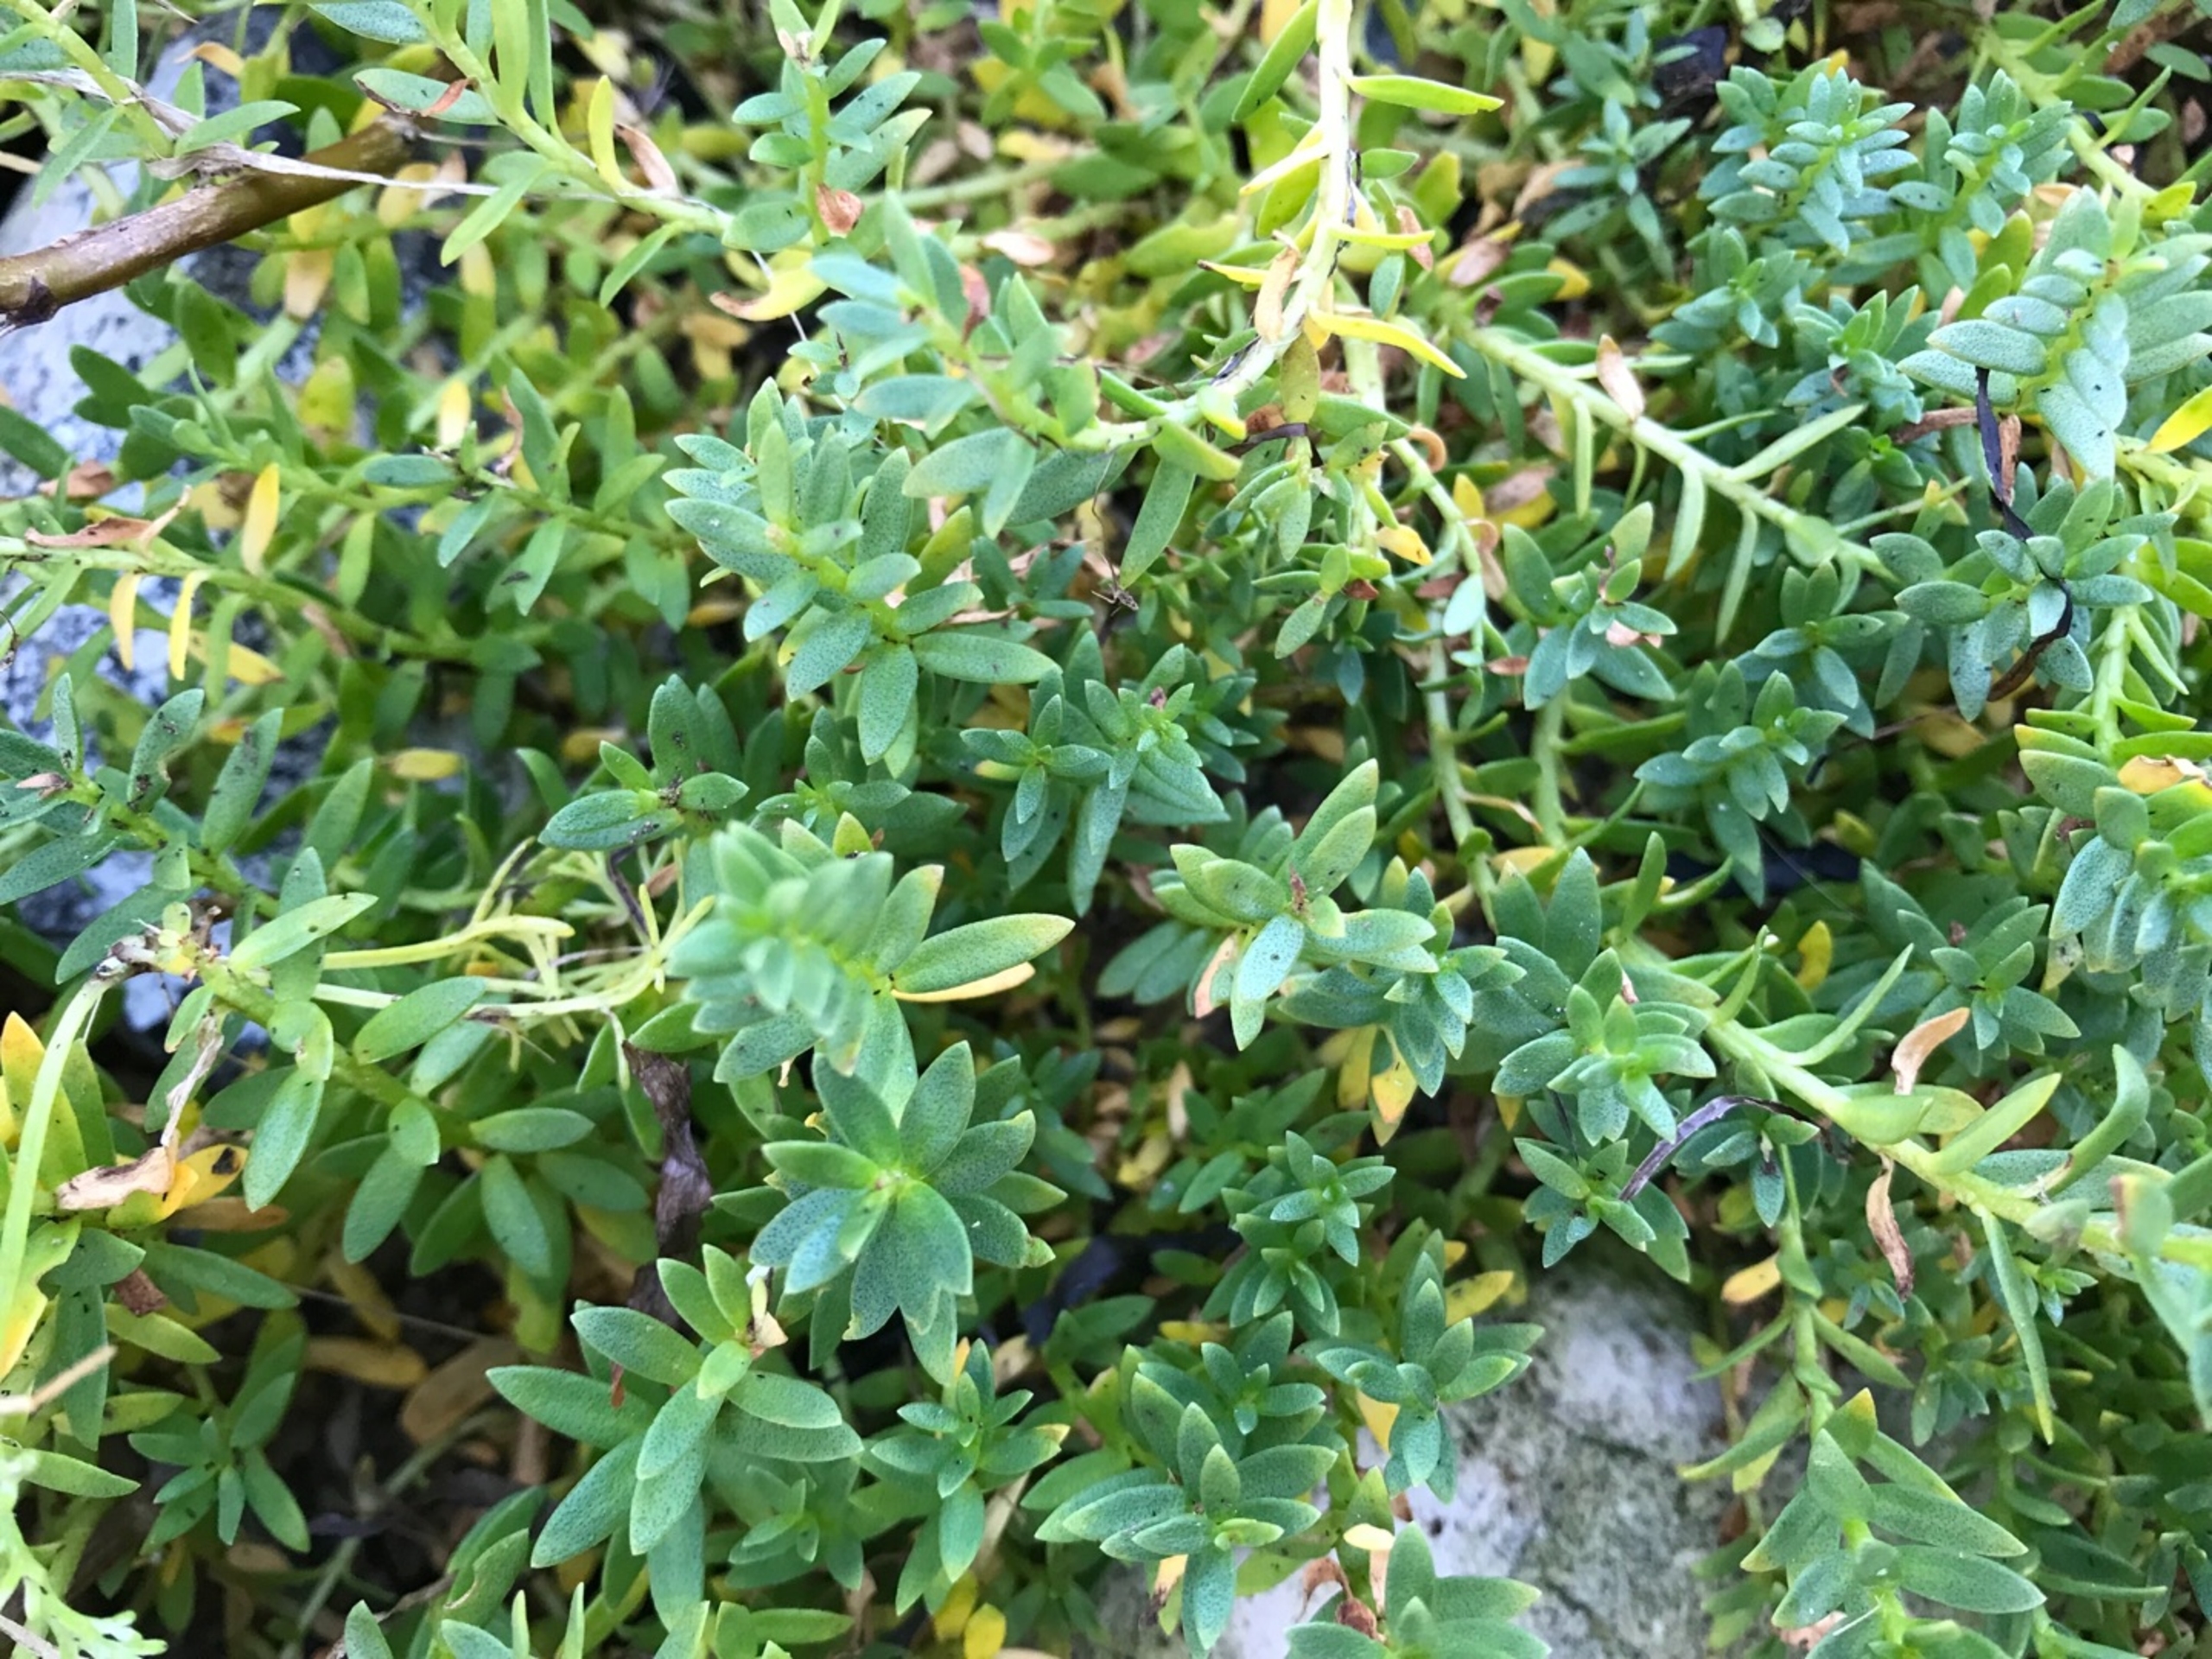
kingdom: Plantae
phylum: Tracheophyta
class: Magnoliopsida
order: Ericales
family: Primulaceae
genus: Lysimachia
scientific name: Lysimachia maritima
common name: Sandkryb
